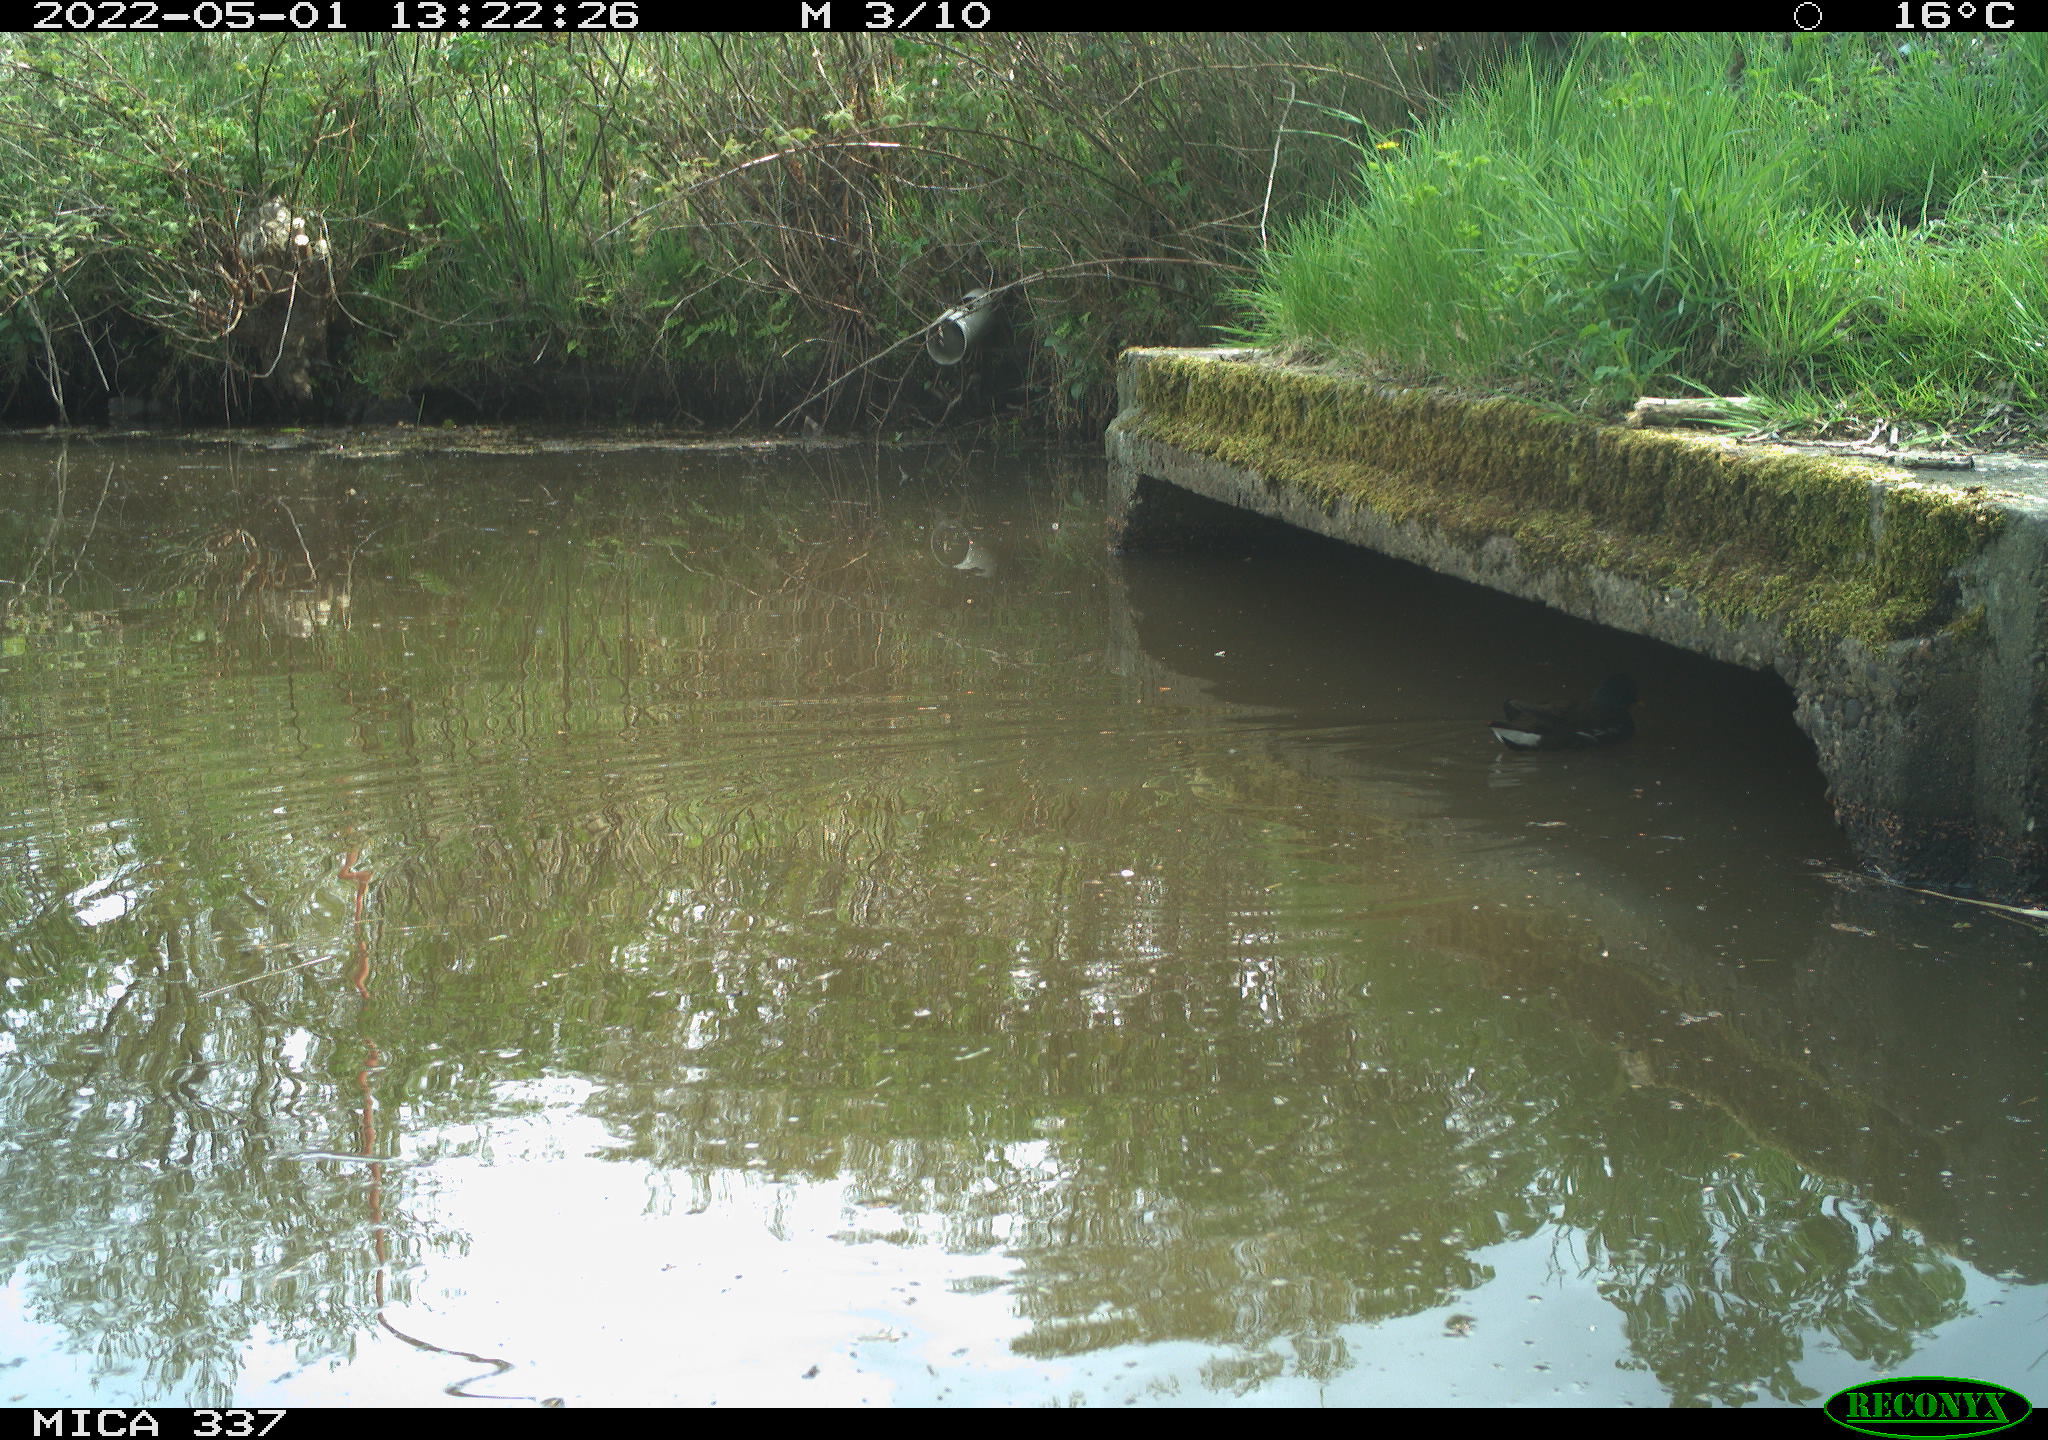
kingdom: Animalia
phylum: Chordata
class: Aves
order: Gruiformes
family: Rallidae
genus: Gallinula
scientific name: Gallinula chloropus
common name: Common moorhen
